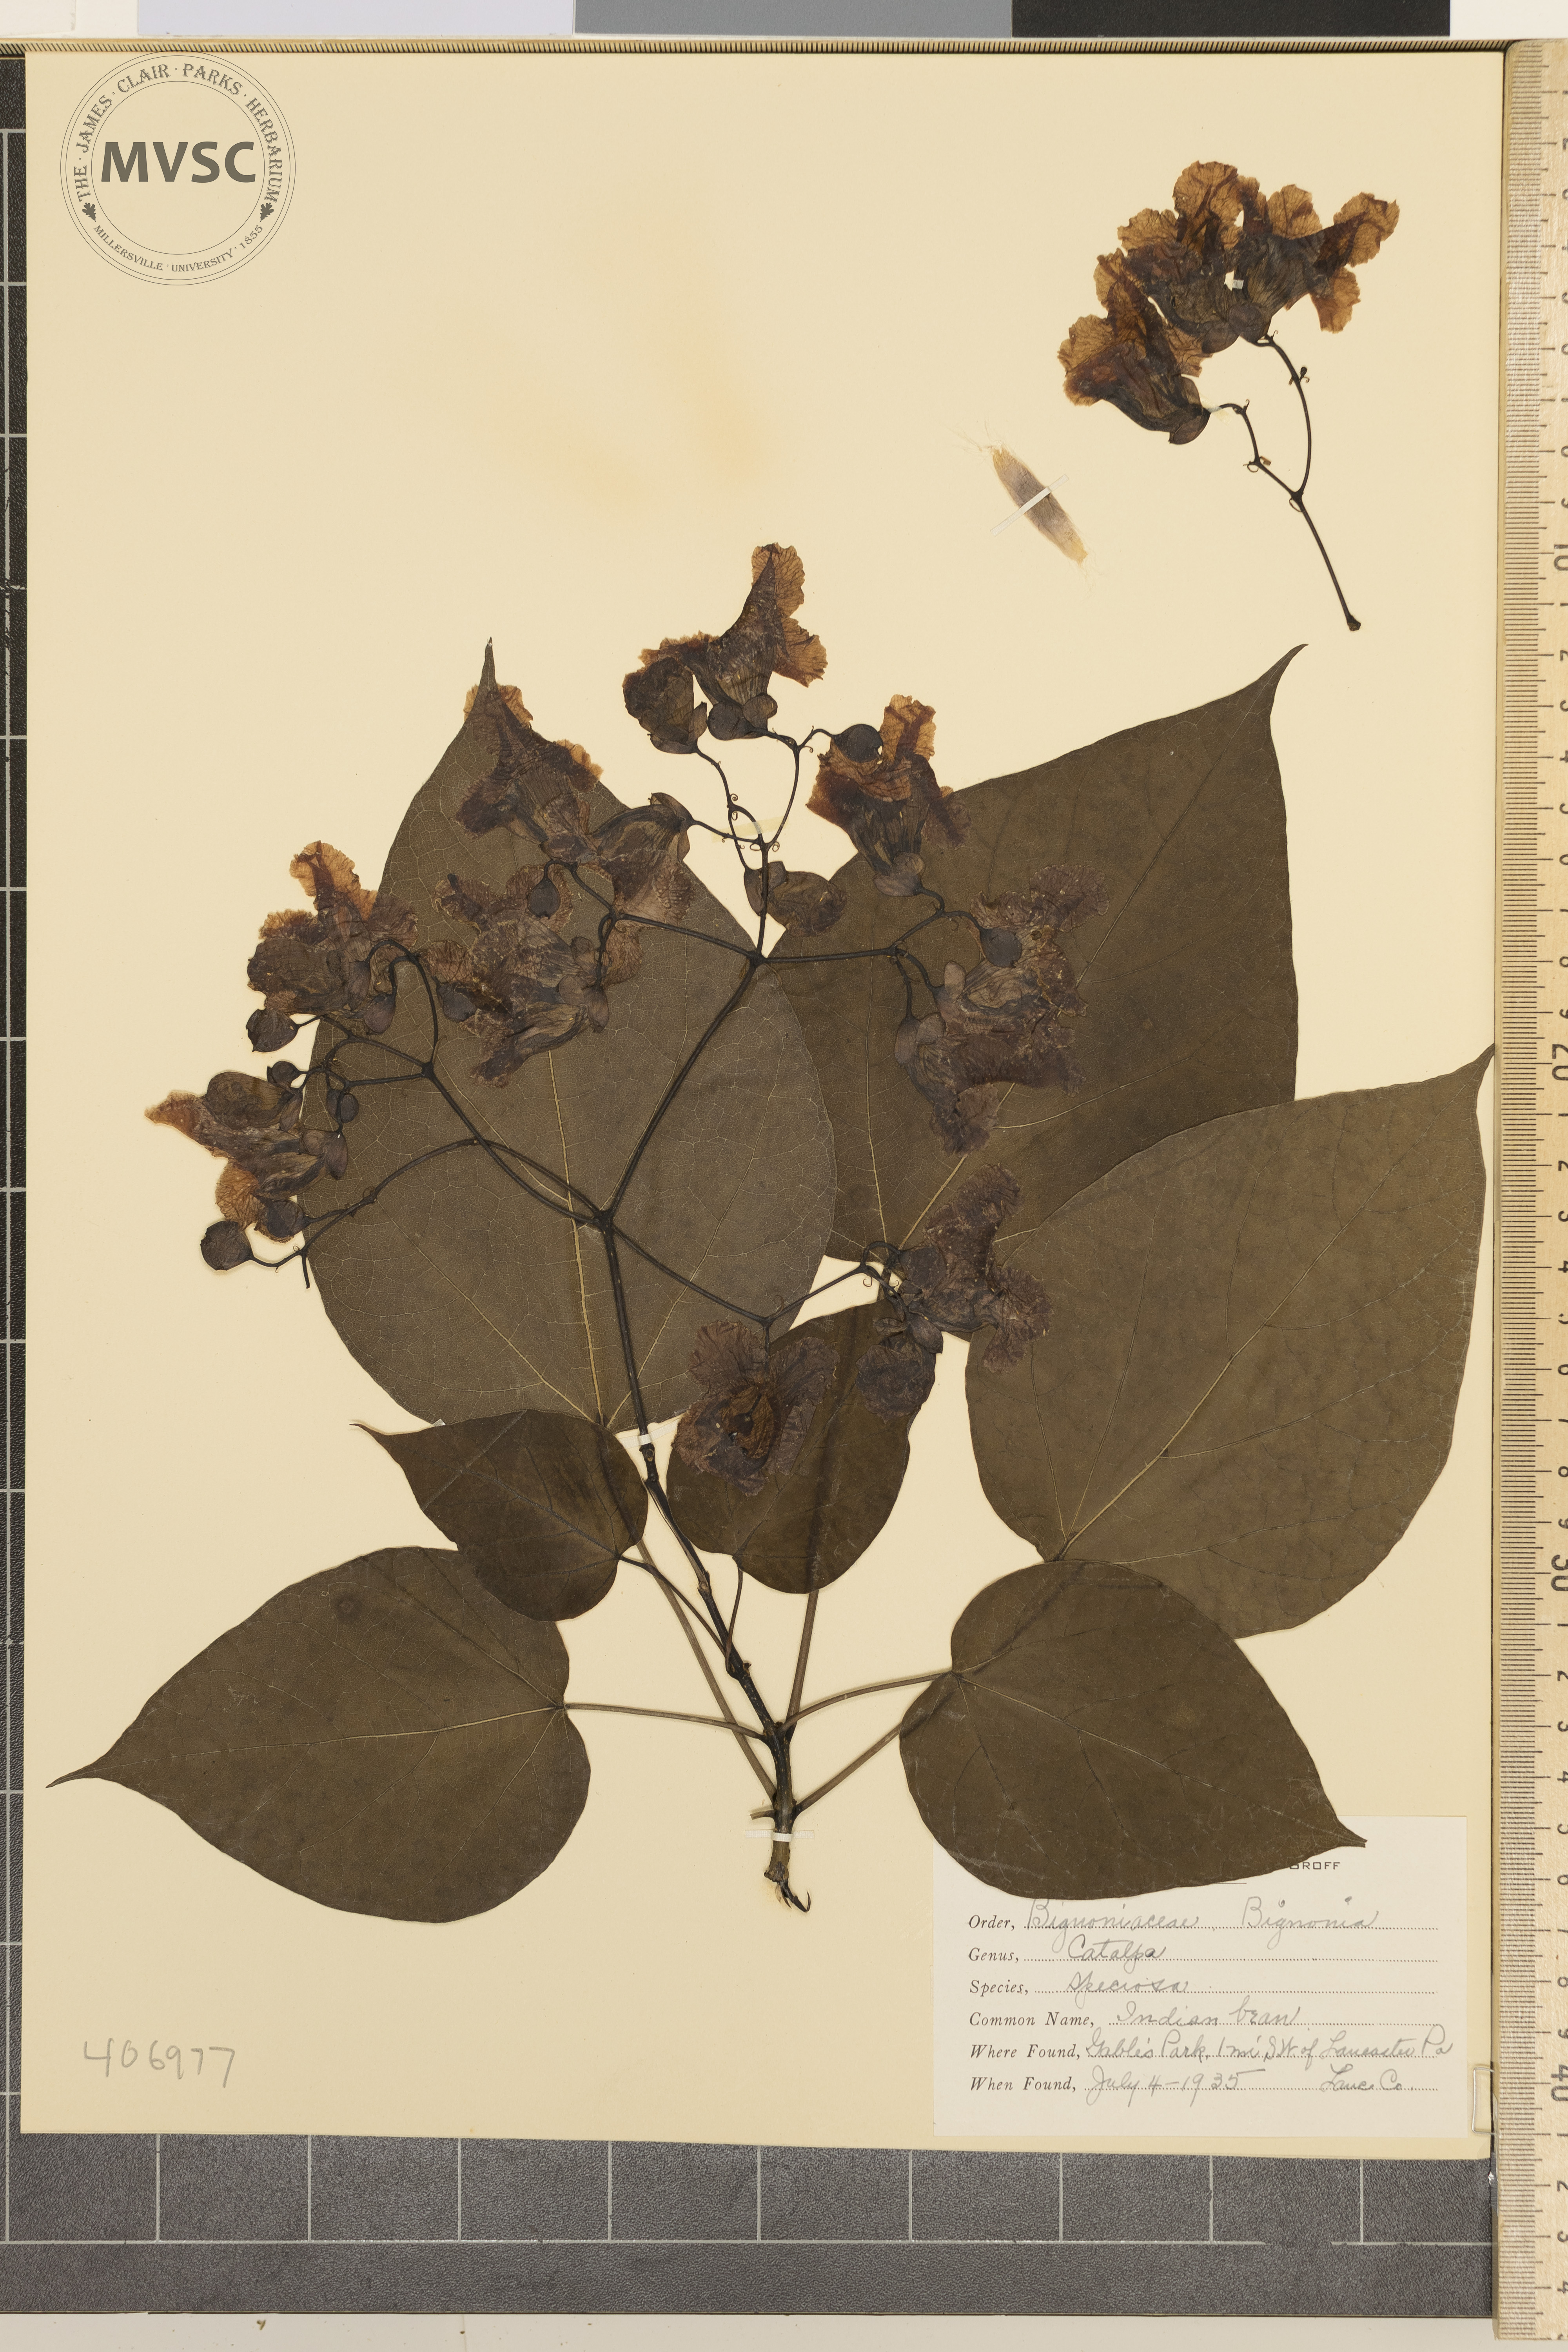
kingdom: Plantae
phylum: Tracheophyta
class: Magnoliopsida
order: Lamiales
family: Bignoniaceae
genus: Catalpa
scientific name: Catalpa speciosa
